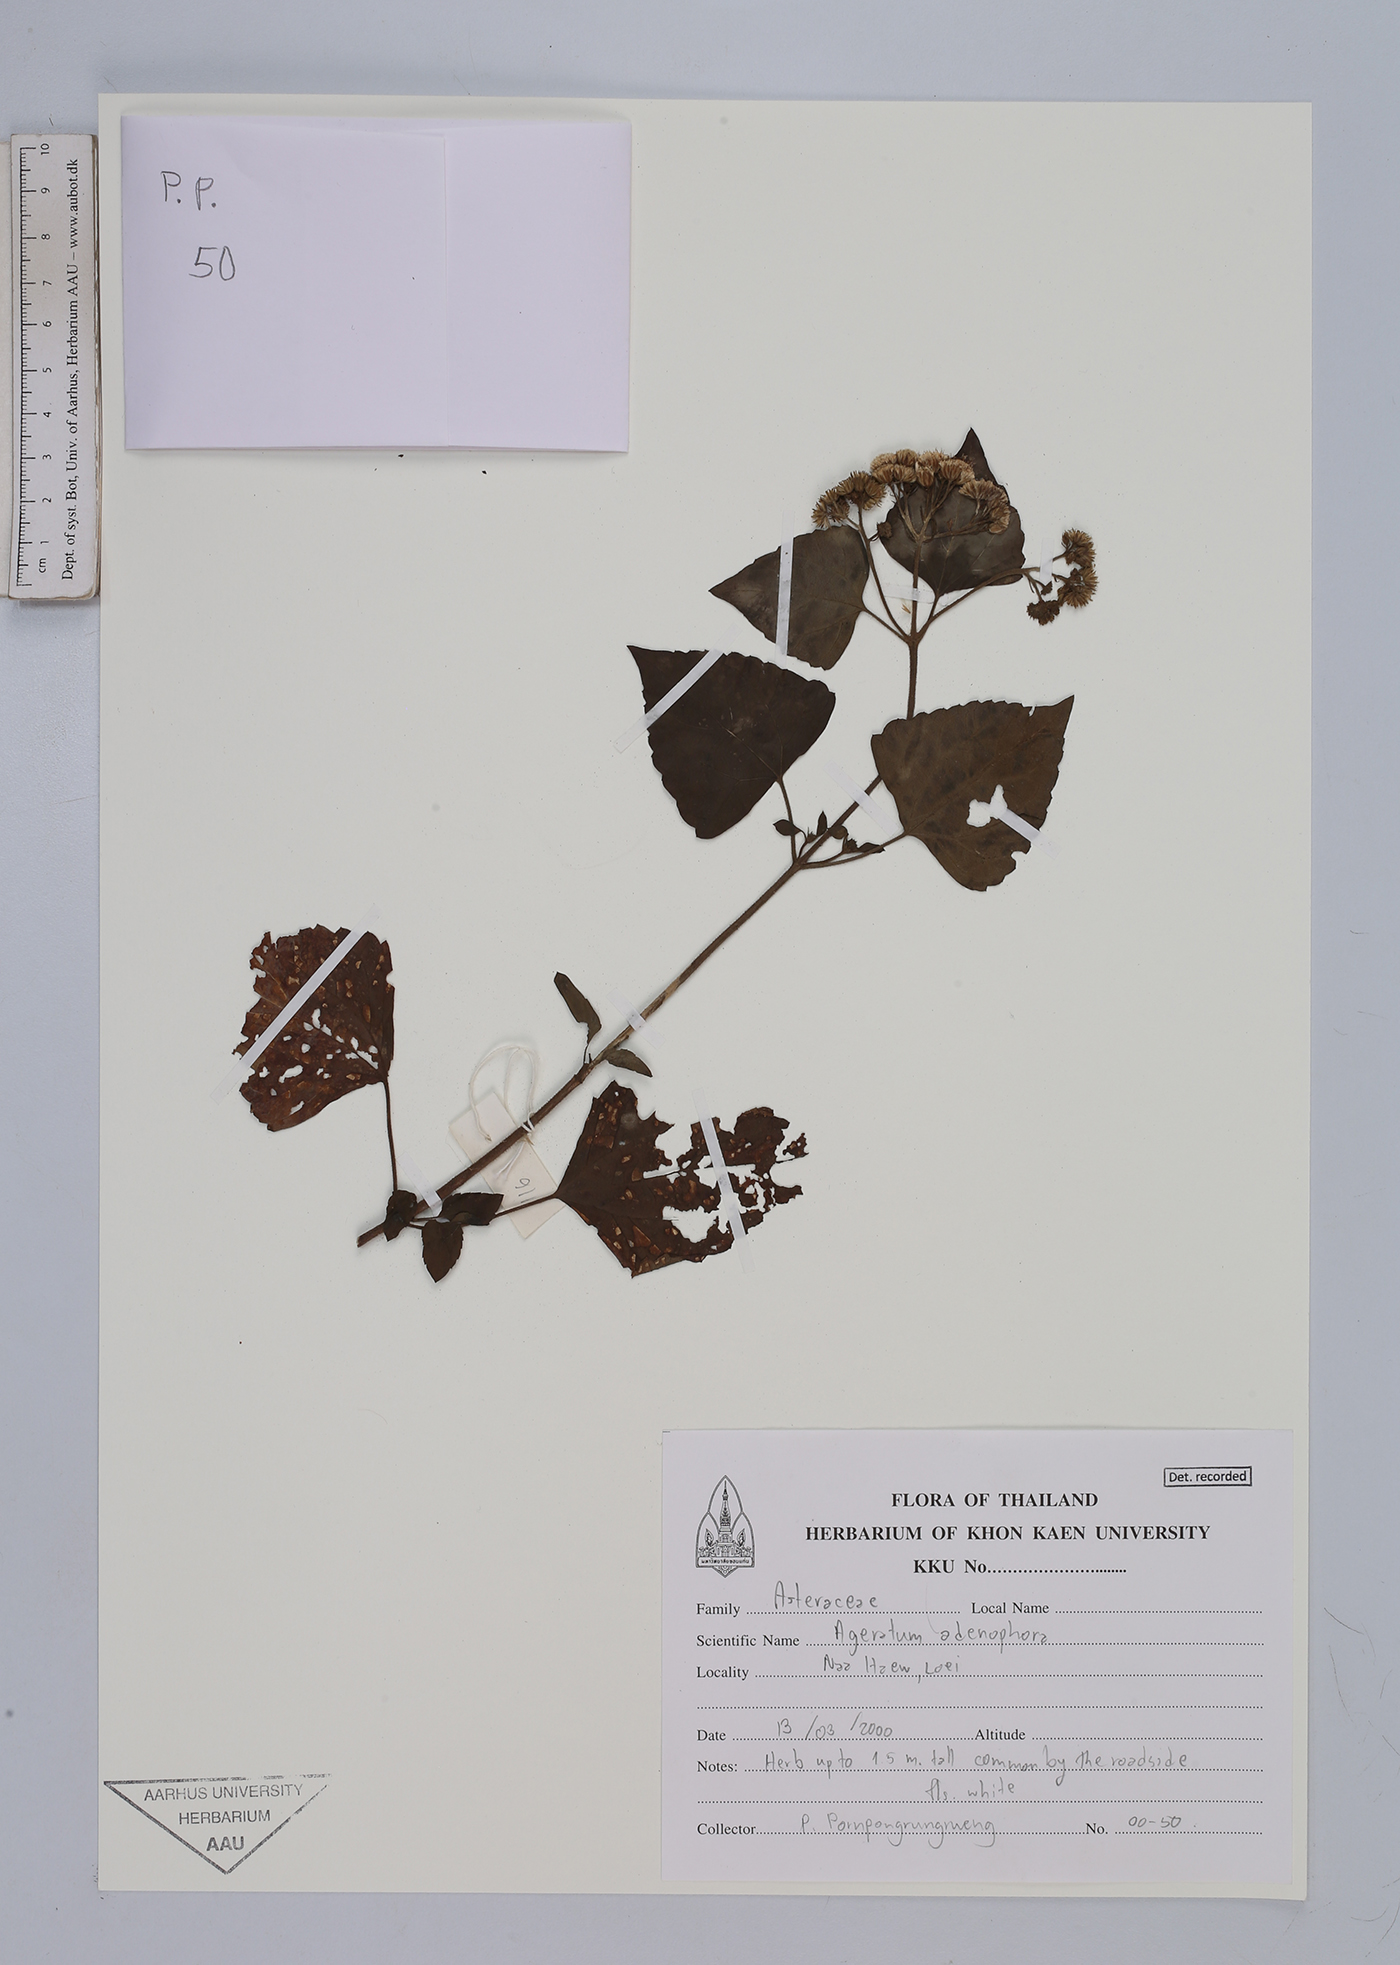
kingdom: Plantae
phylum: Tracheophyta
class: Magnoliopsida
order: Asterales
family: Asteraceae
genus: Ageratina
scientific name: Ageratina adenophora
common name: Sticky snakeroot
